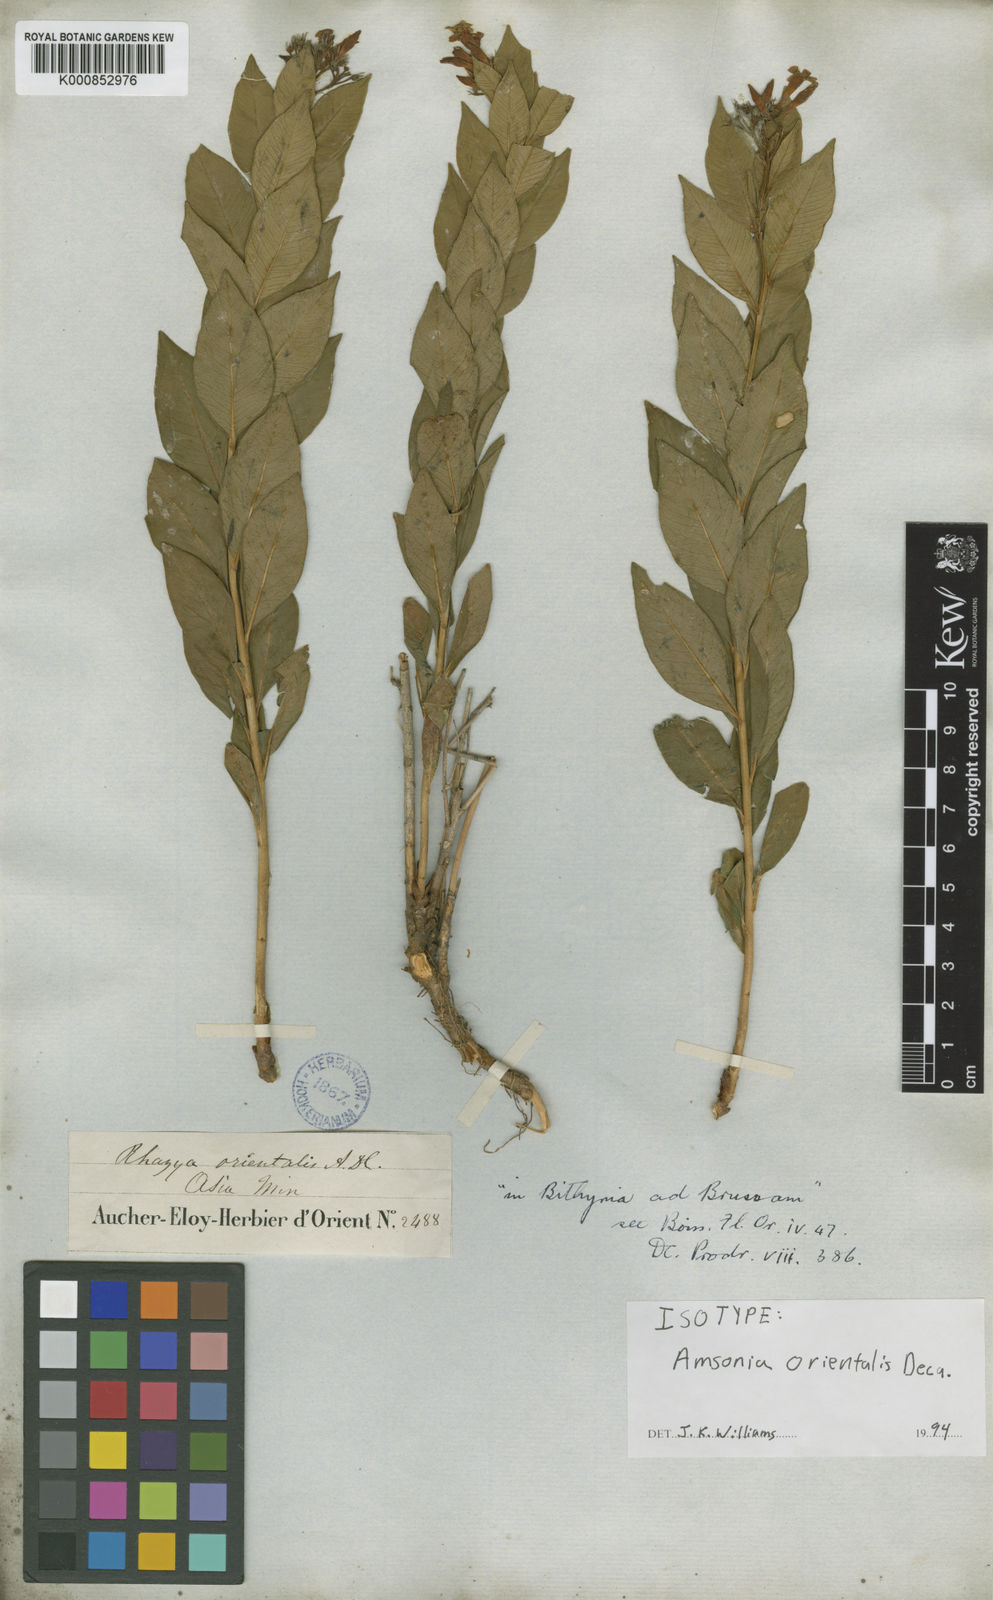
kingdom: Plantae
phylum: Tracheophyta
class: Magnoliopsida
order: Gentianales
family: Apocynaceae
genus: Amsonia
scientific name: Amsonia orientalis
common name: Blue star
